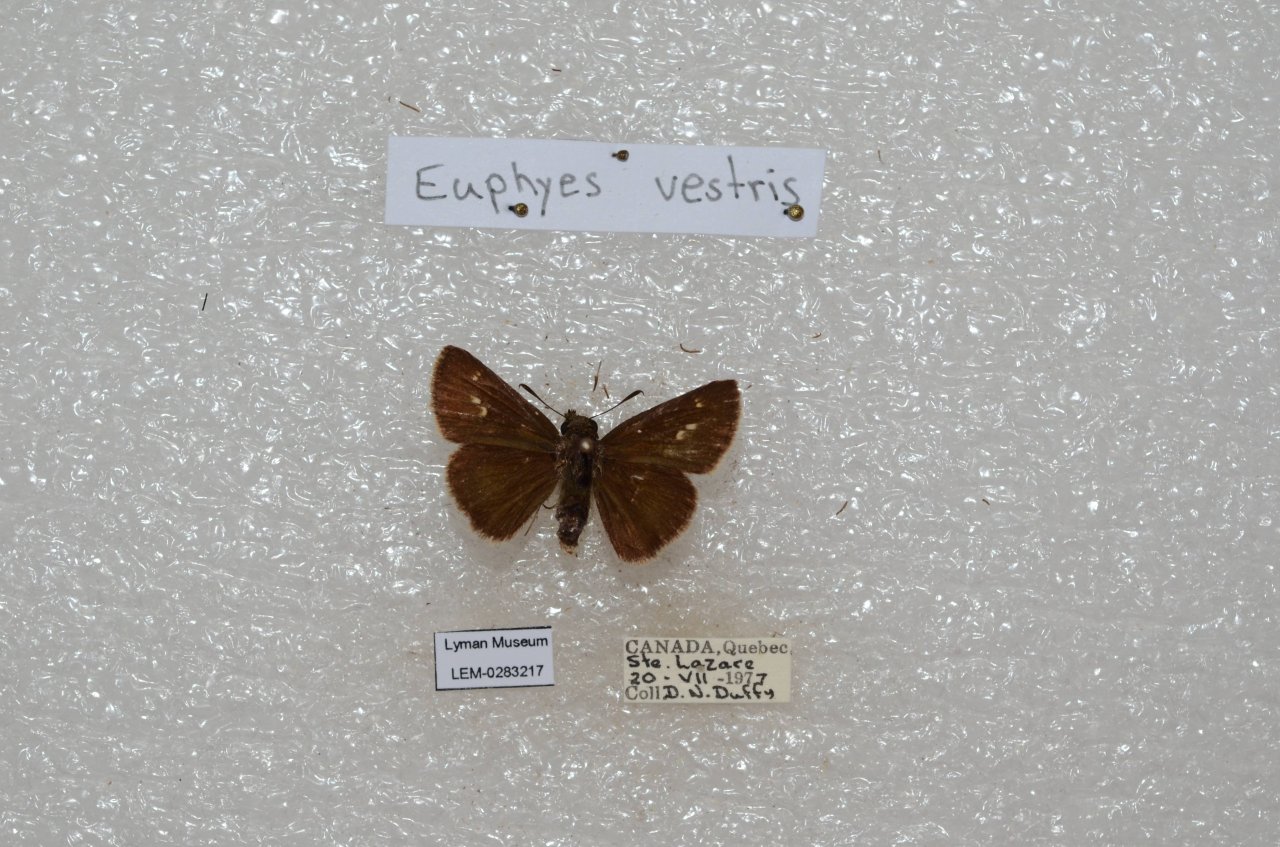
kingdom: Animalia
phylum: Arthropoda
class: Insecta
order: Lepidoptera
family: Hesperiidae
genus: Euphyes
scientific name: Euphyes vestris
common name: Dun Skipper
